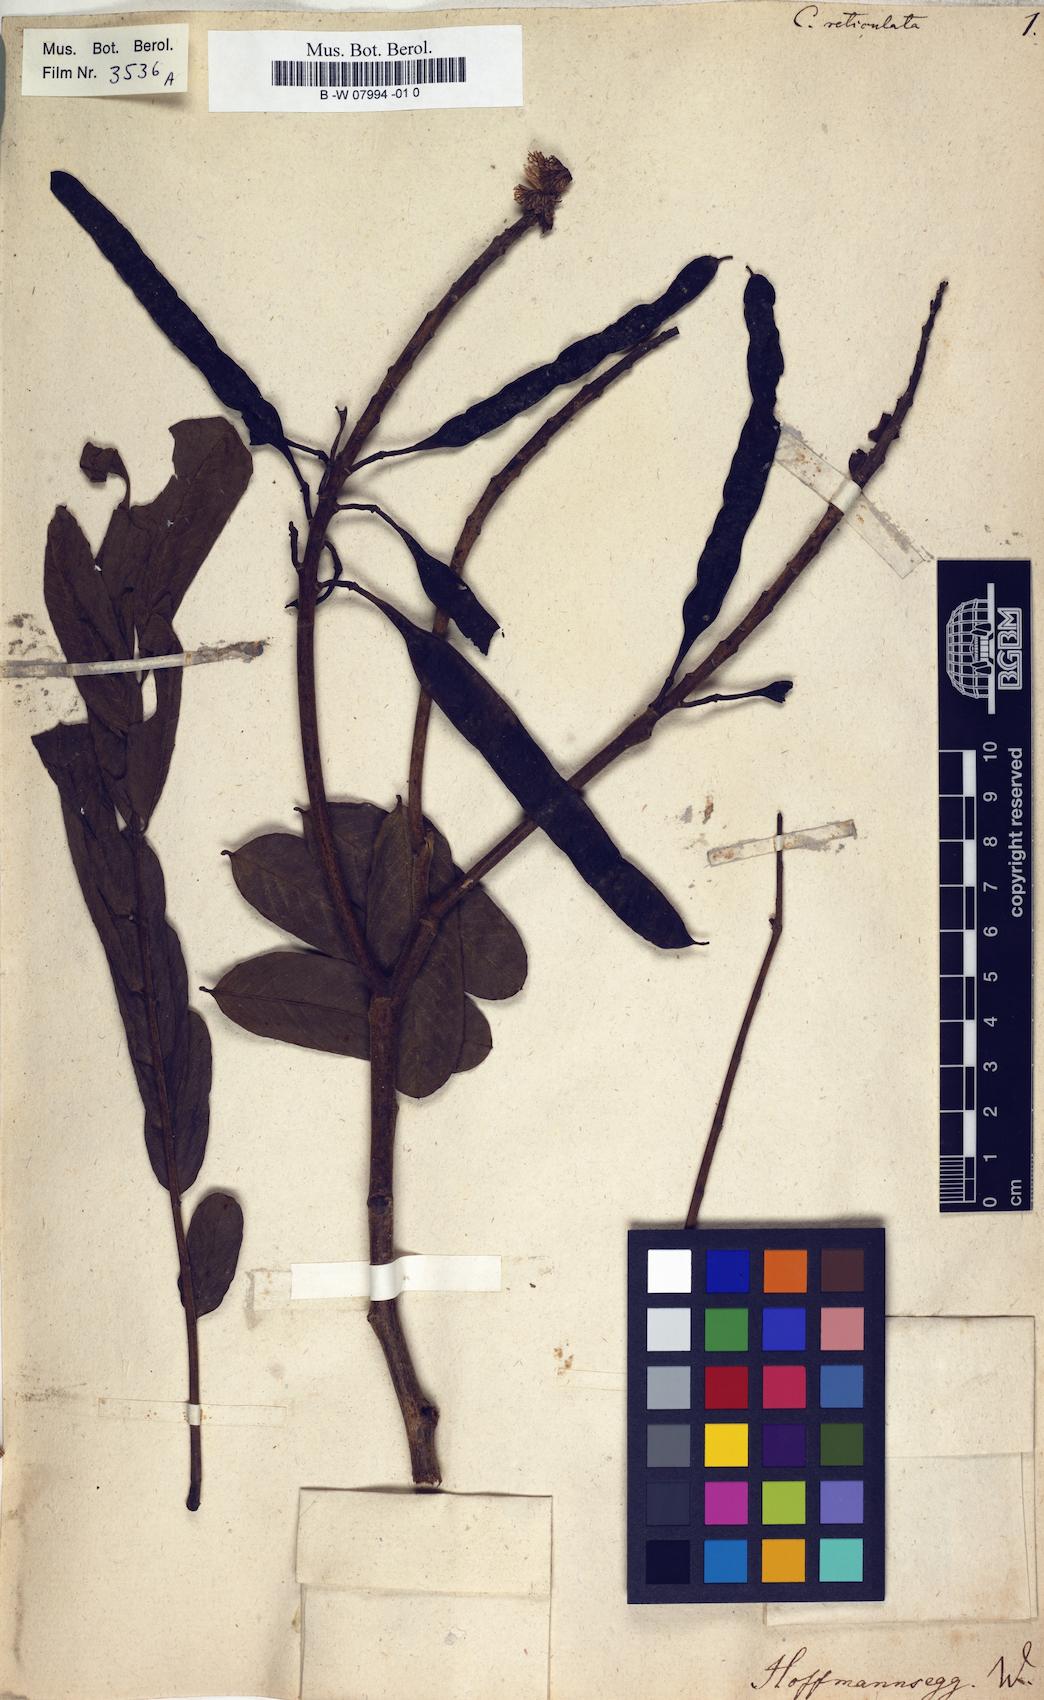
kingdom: Plantae
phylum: Tracheophyta
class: Magnoliopsida
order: Fabales
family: Fabaceae
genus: Senna
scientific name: Senna reticulata
